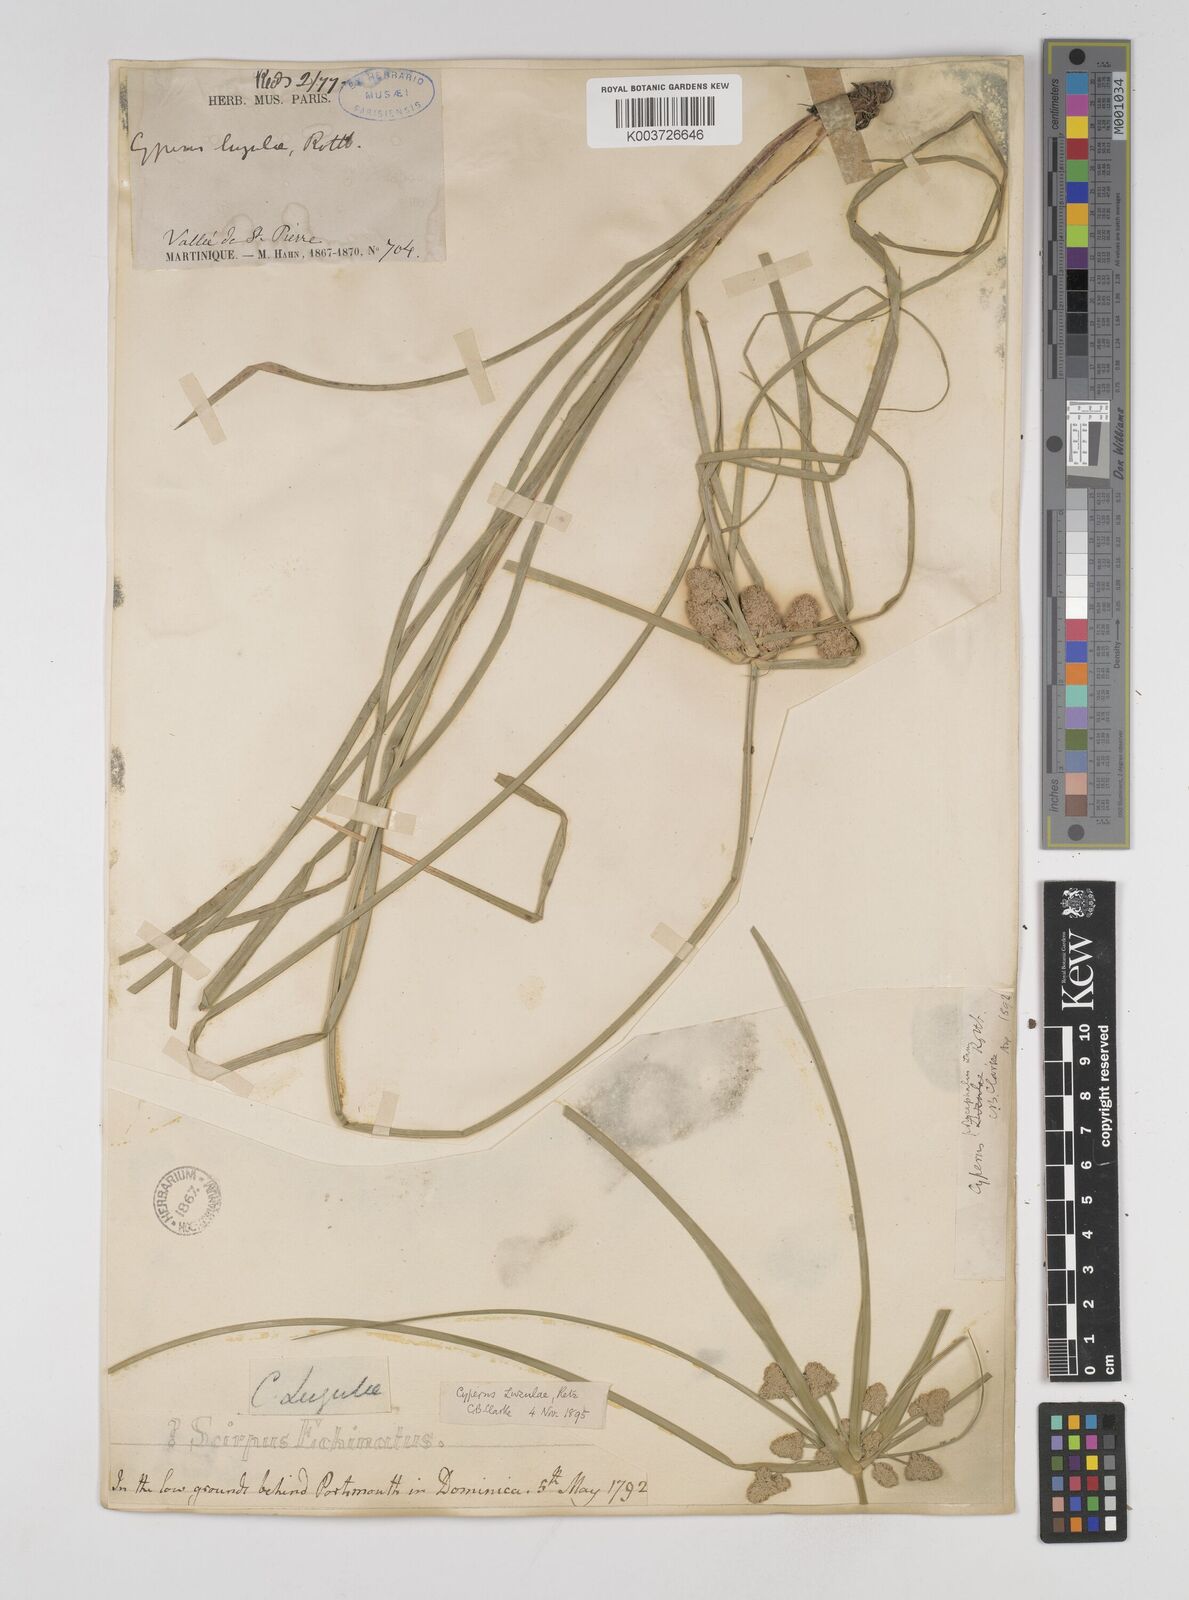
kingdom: Plantae
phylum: Tracheophyta
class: Liliopsida
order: Poales
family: Cyperaceae
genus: Cyperus
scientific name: Cyperus luzulae
